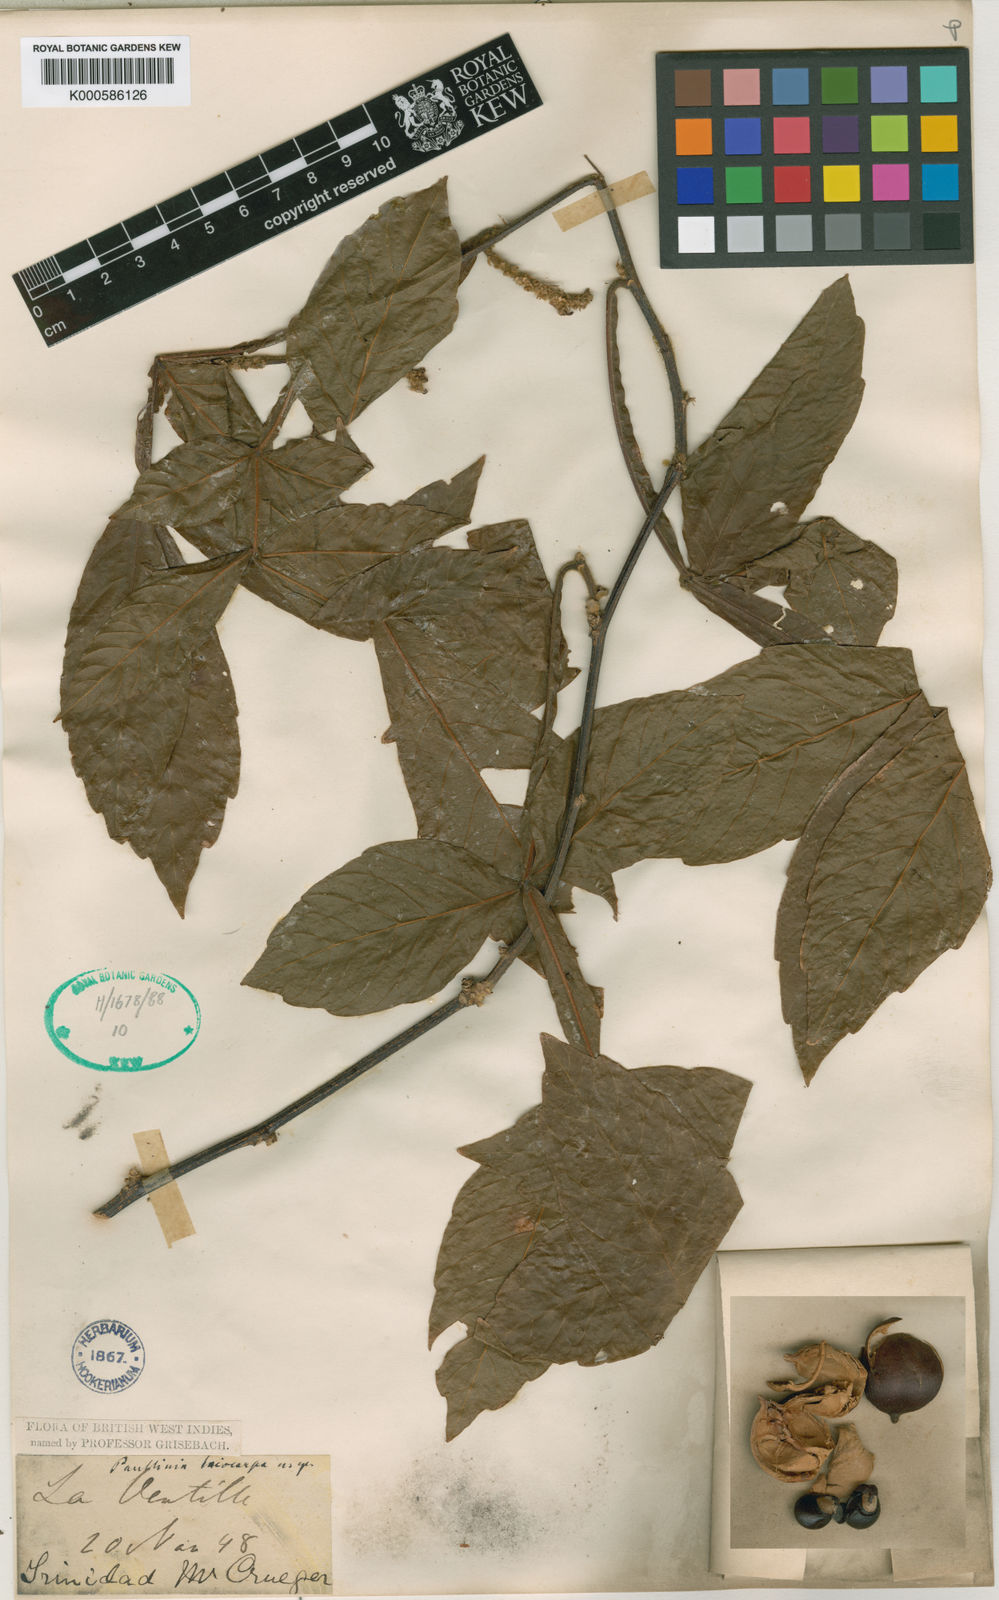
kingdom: Plantae
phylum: Tracheophyta
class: Magnoliopsida
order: Sapindales
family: Sapindaceae
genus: Paullinia
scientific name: Paullinia leiocarpa
